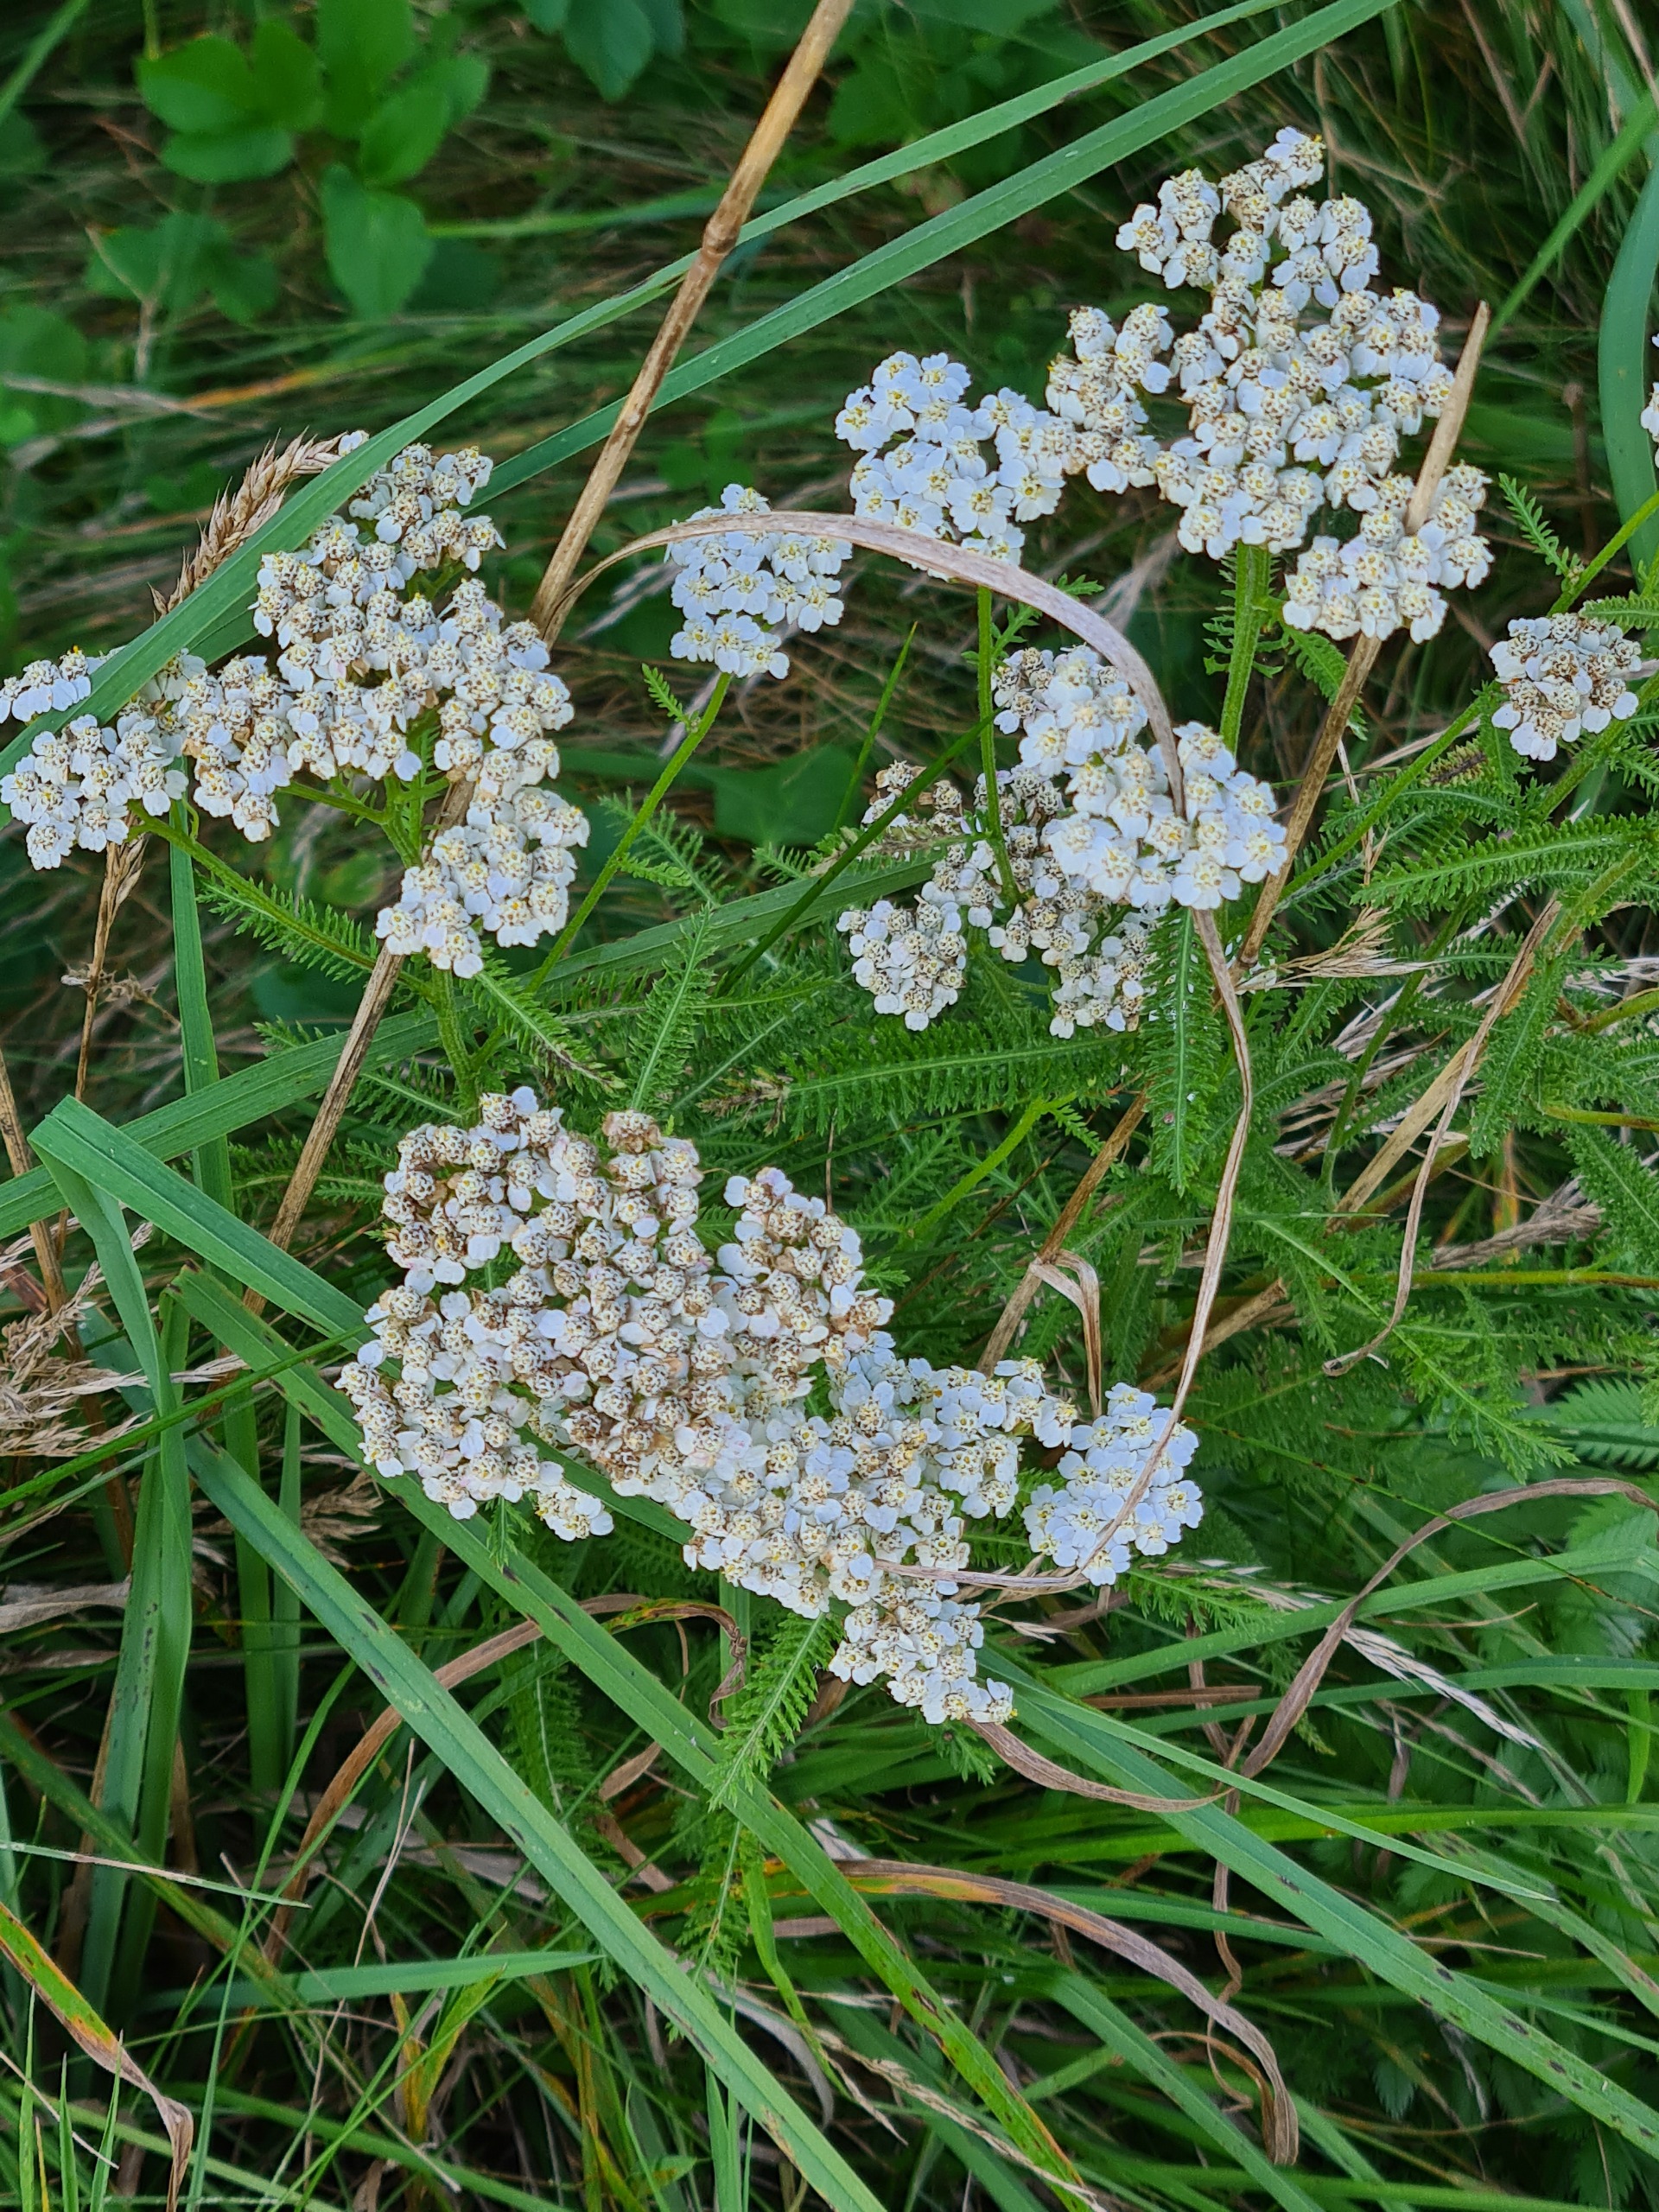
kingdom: Plantae
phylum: Tracheophyta
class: Magnoliopsida
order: Asterales
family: Asteraceae
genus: Achillea
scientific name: Achillea millefolium
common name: Almindelig røllike
